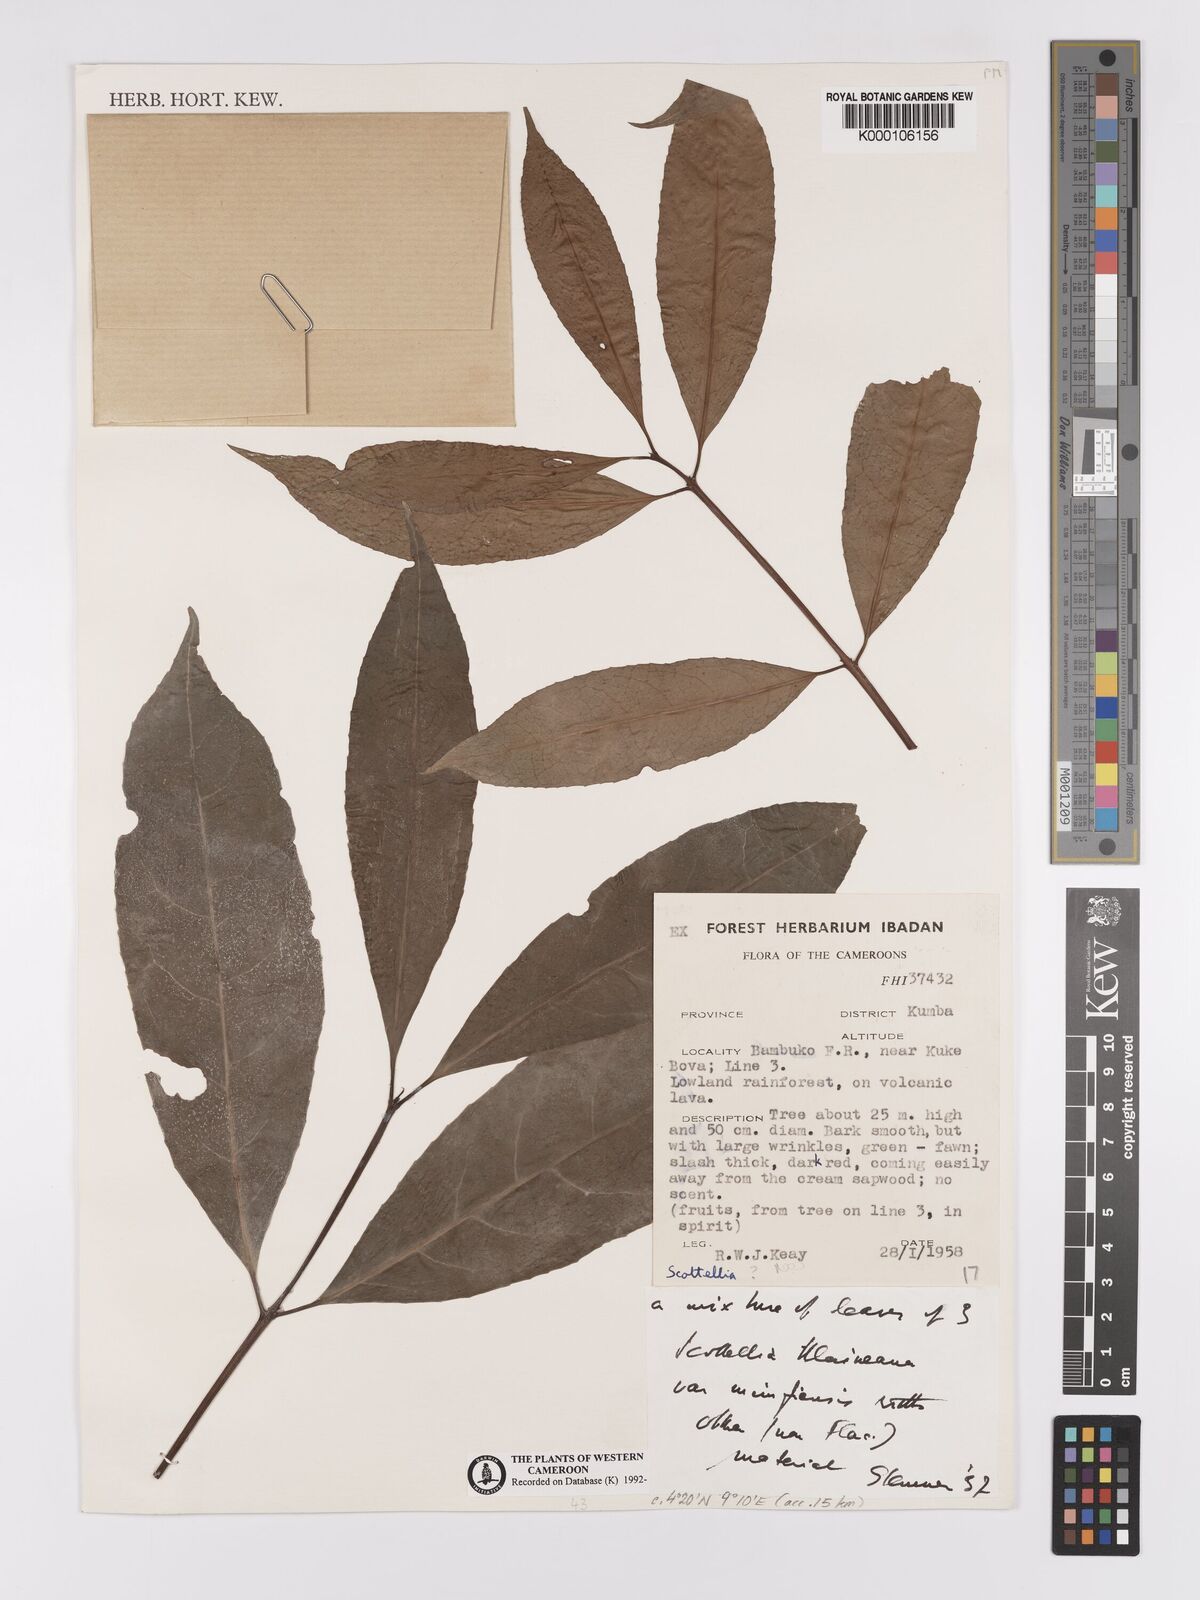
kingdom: Plantae
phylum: Tracheophyta
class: Magnoliopsida
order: Malpighiales
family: Achariaceae
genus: Scottellia
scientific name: Scottellia klaineana
